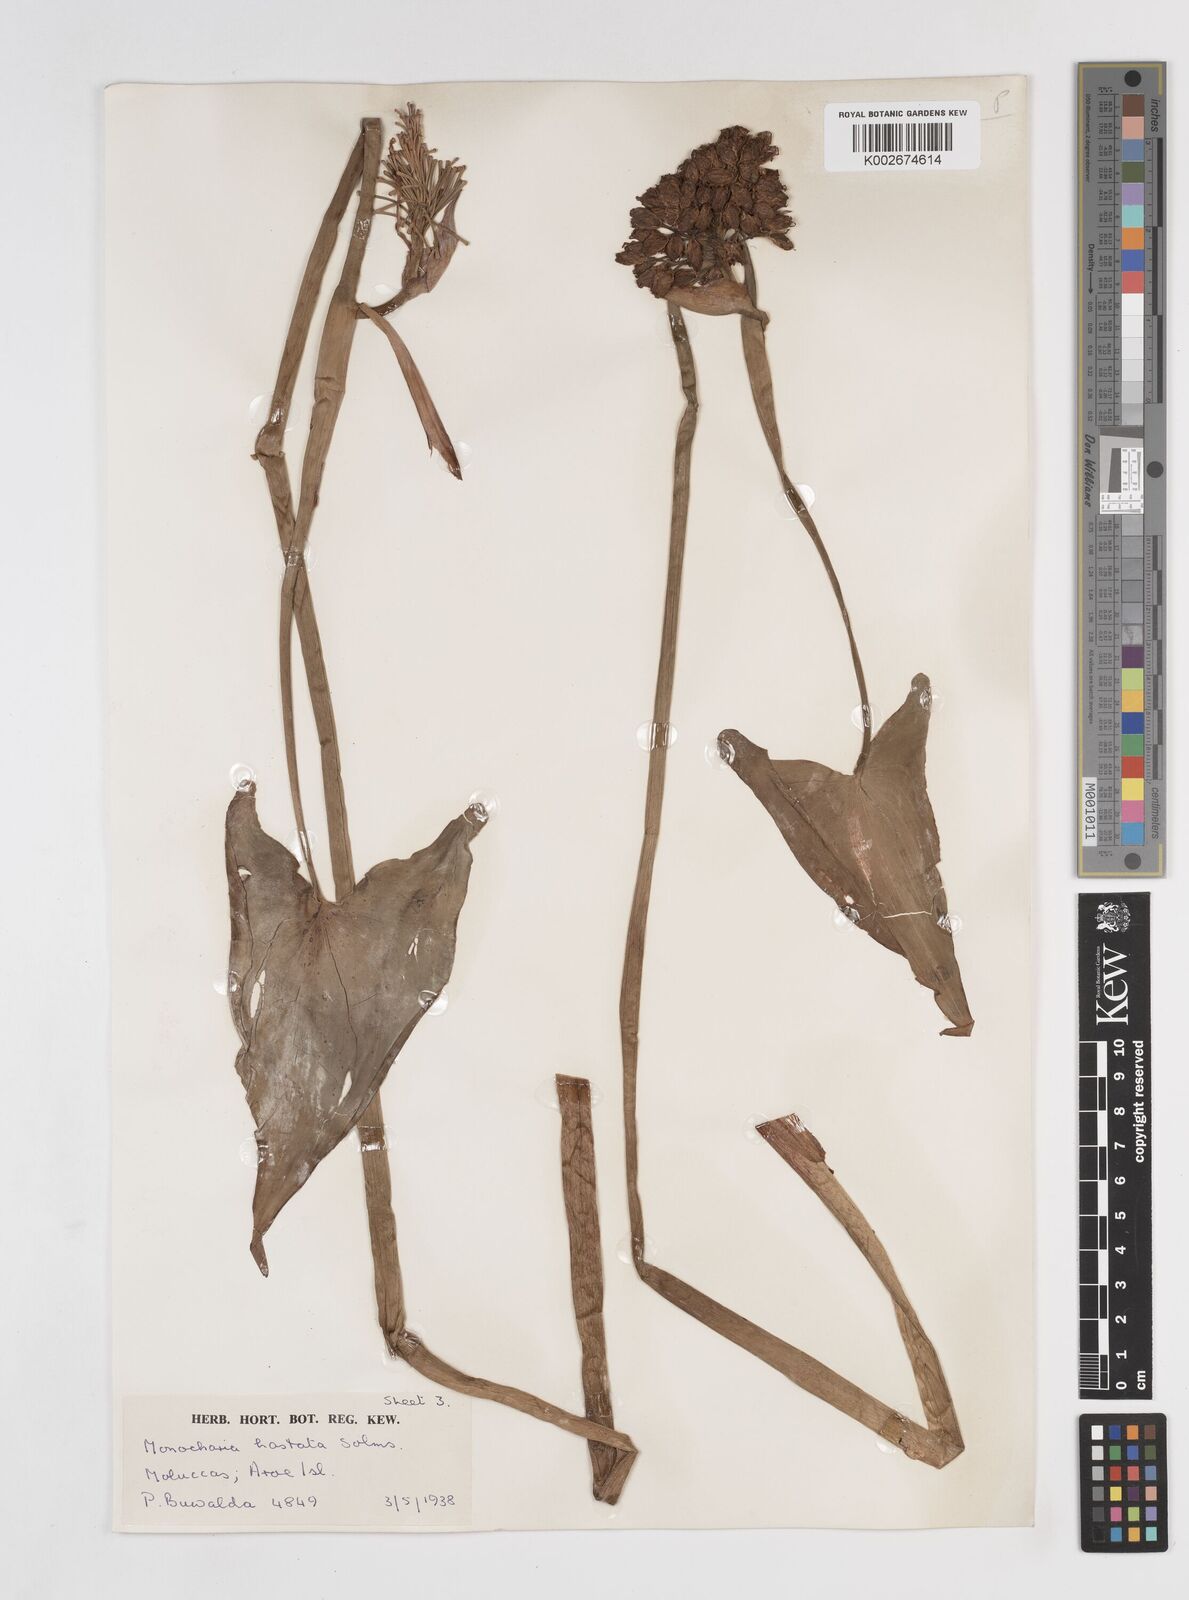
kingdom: Plantae
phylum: Tracheophyta
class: Liliopsida
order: Commelinales
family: Pontederiaceae
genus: Pontederia
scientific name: Pontederia hastata
